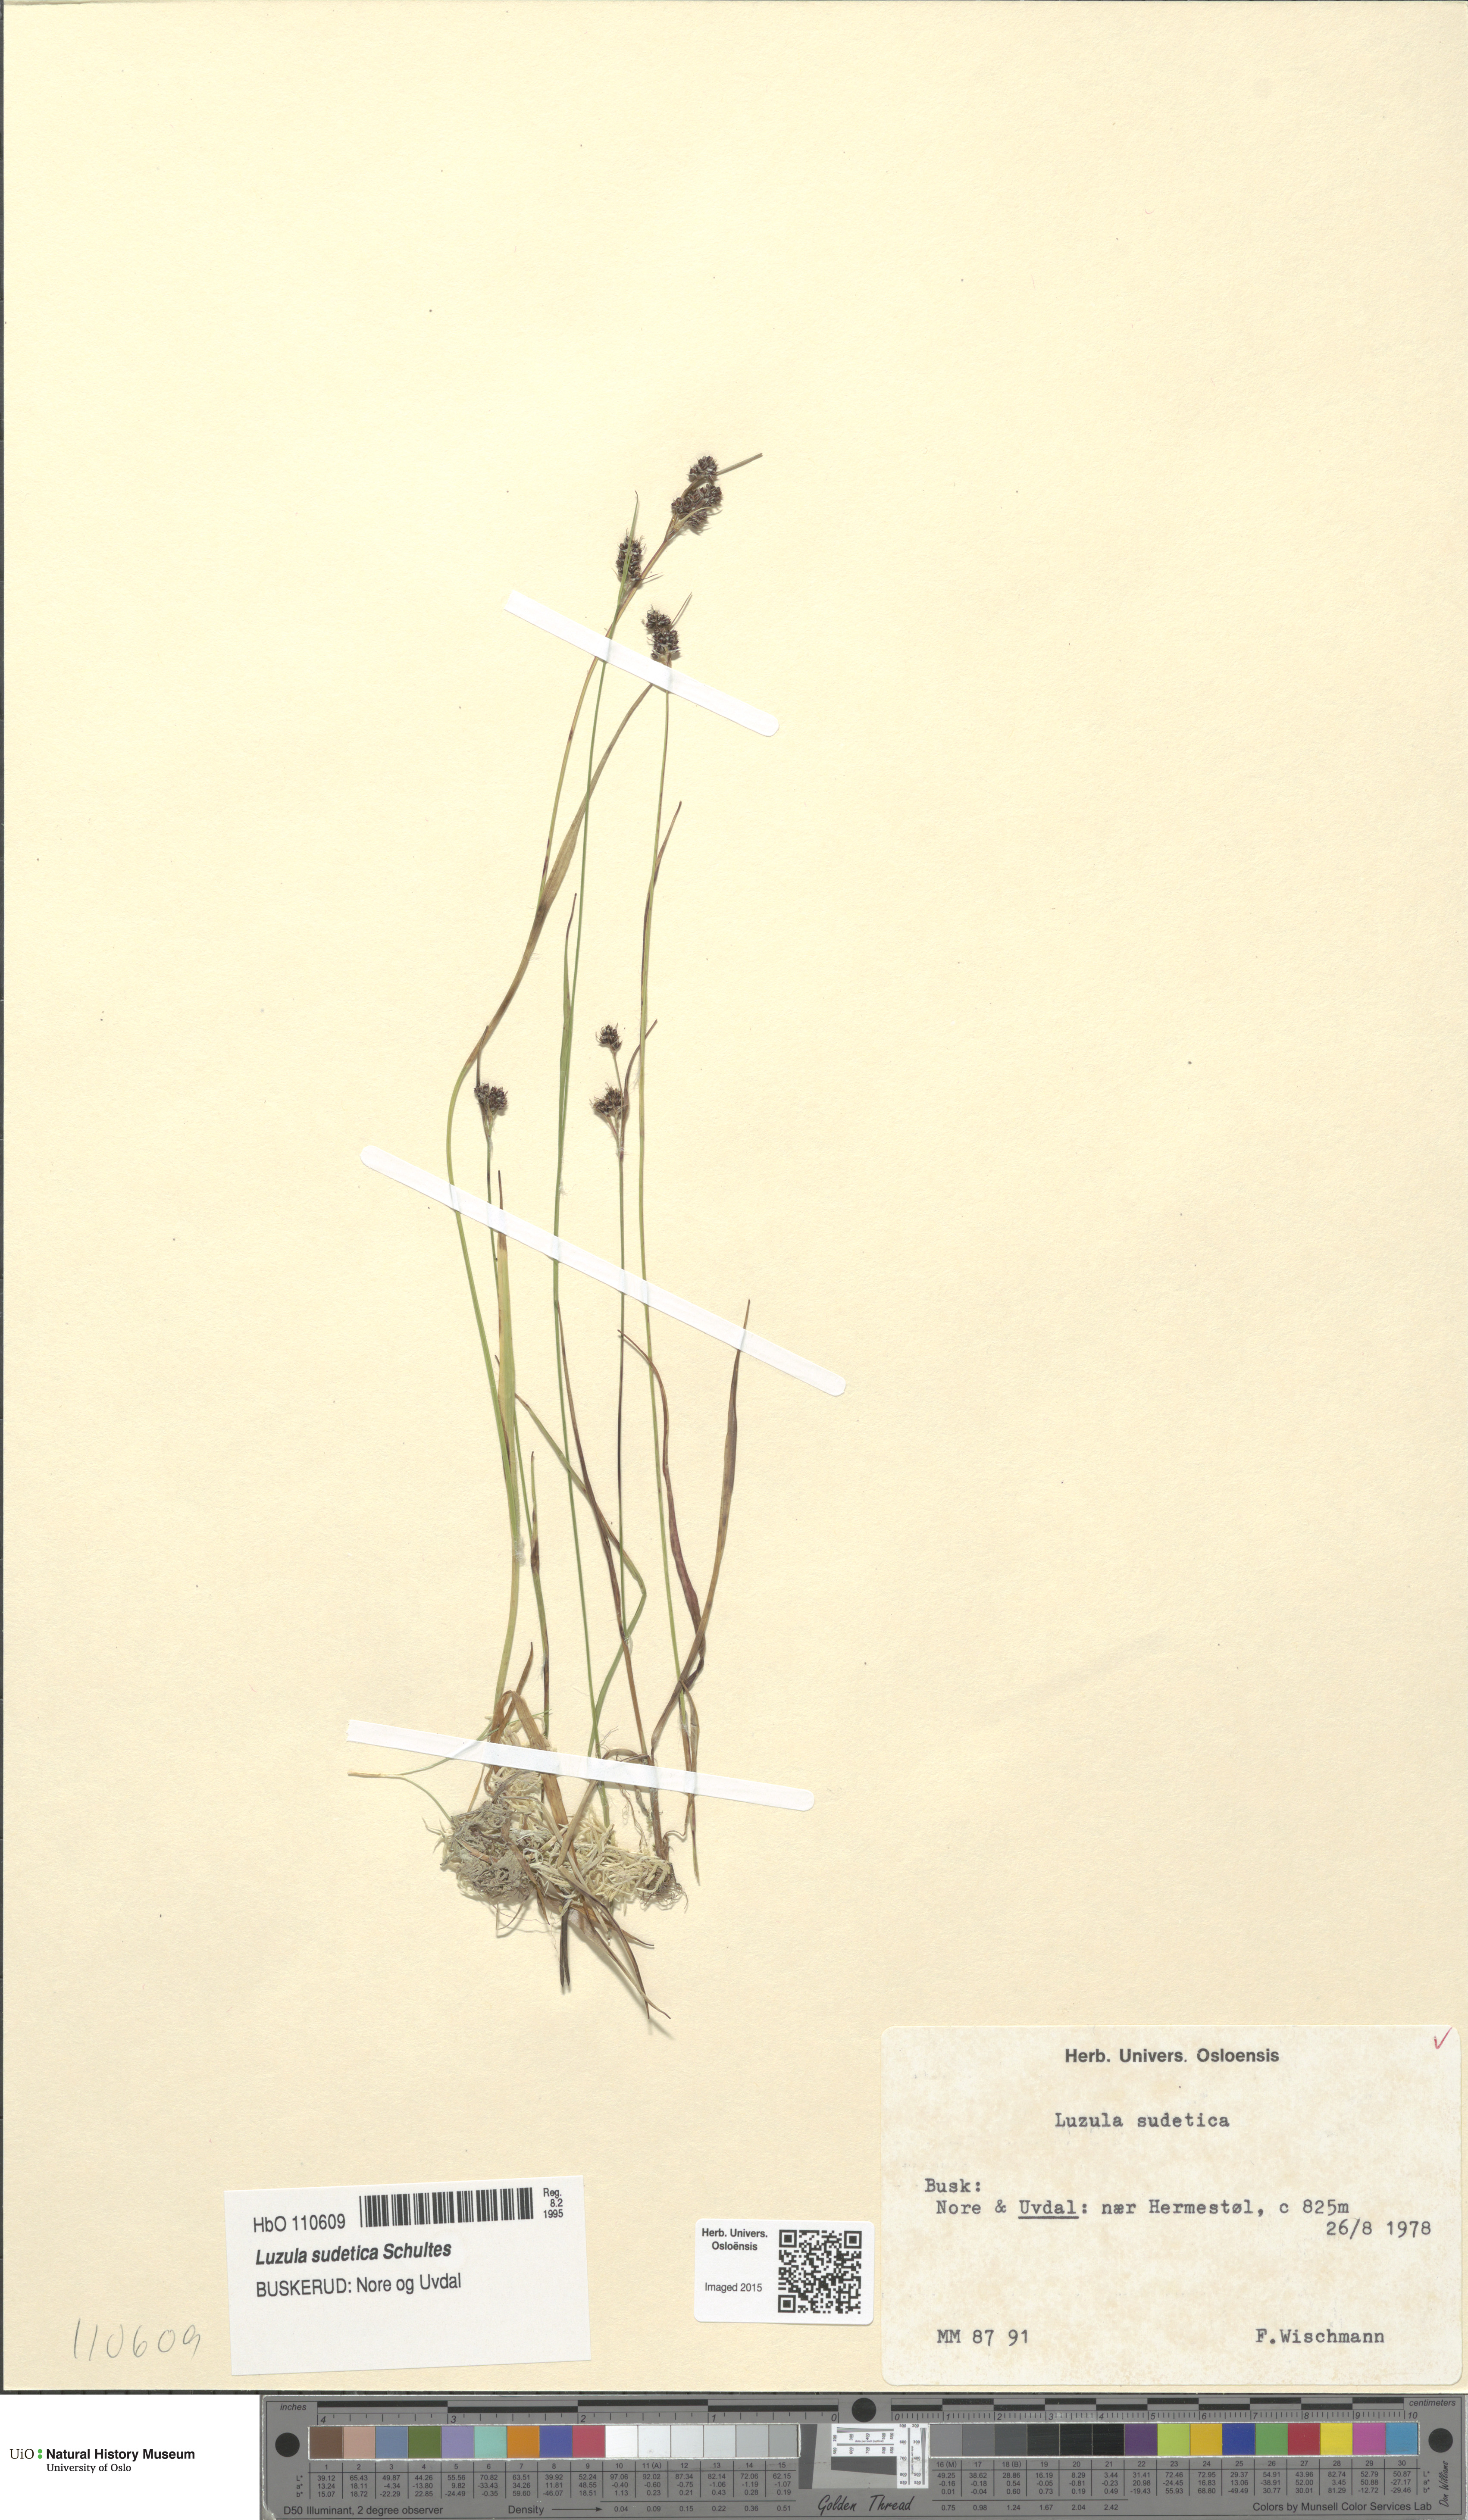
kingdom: Plantae
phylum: Tracheophyta
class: Liliopsida
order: Poales
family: Juncaceae
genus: Luzula
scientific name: Luzula sudetica
